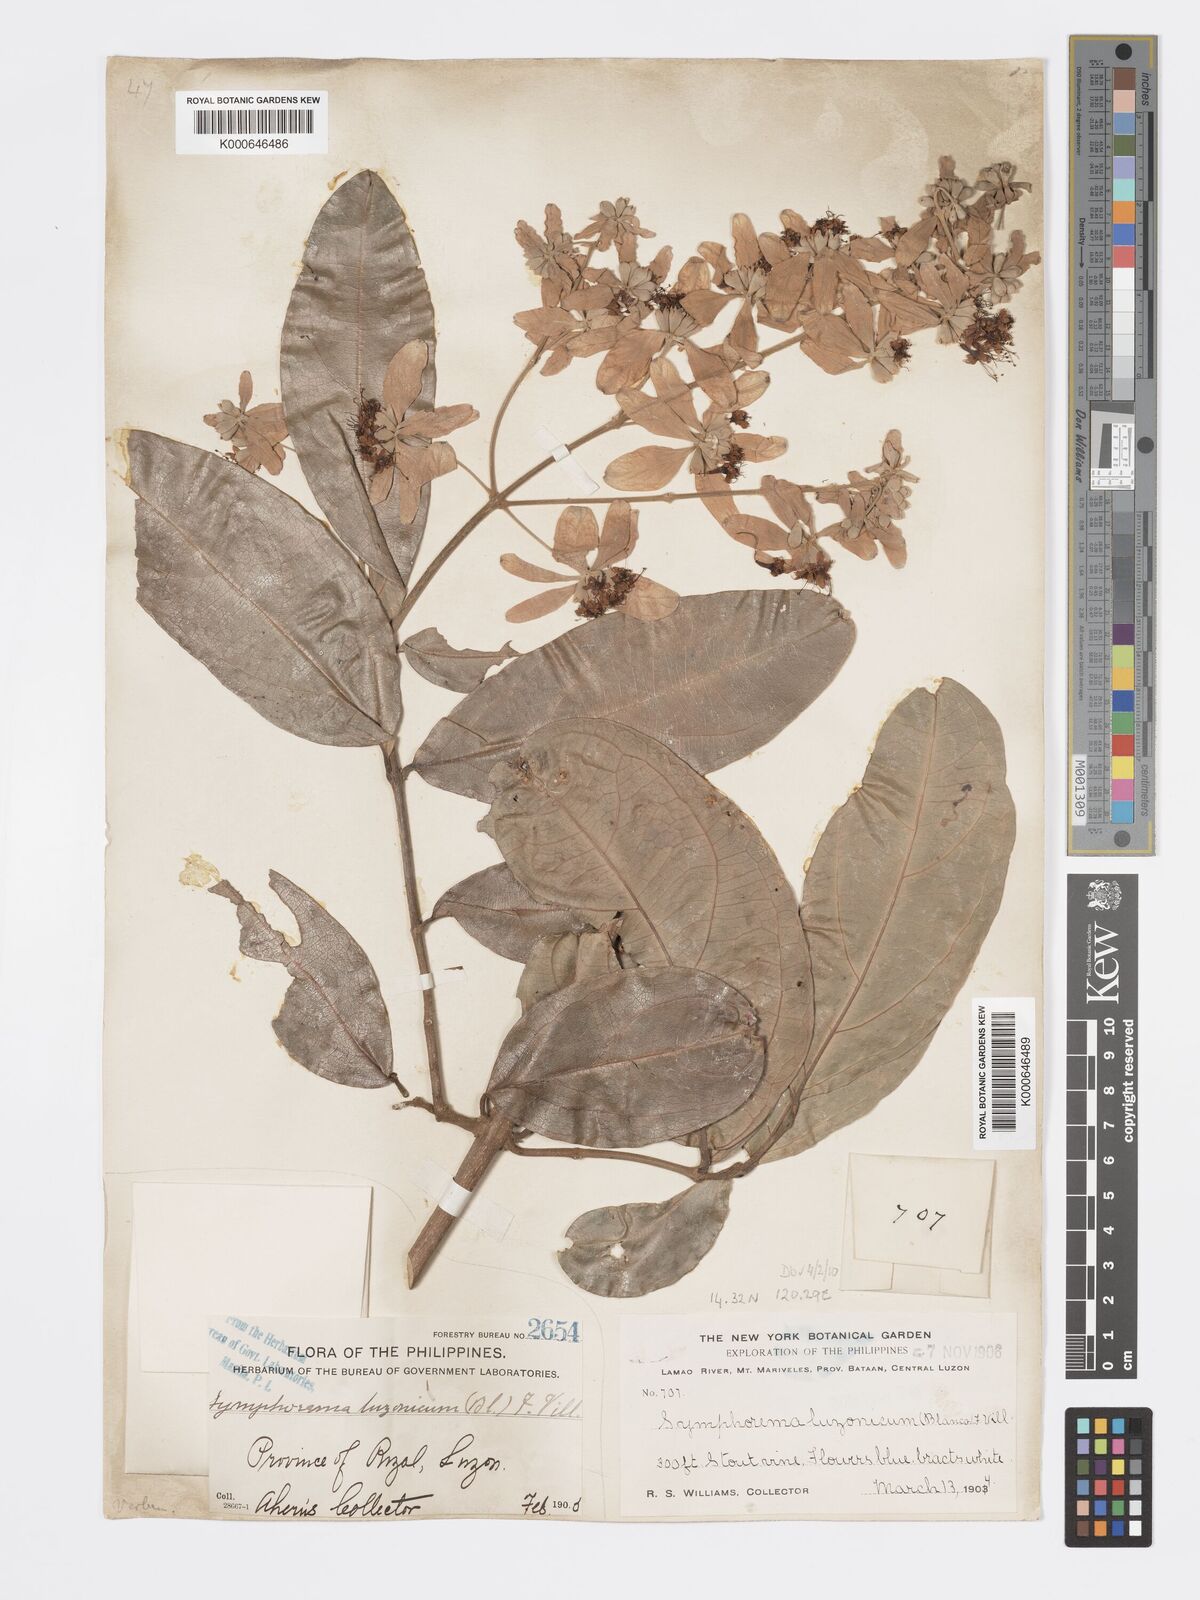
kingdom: Plantae
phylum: Tracheophyta
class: Magnoliopsida
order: Lamiales
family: Lamiaceae
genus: Symphorema
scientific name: Symphorema luzonicum
